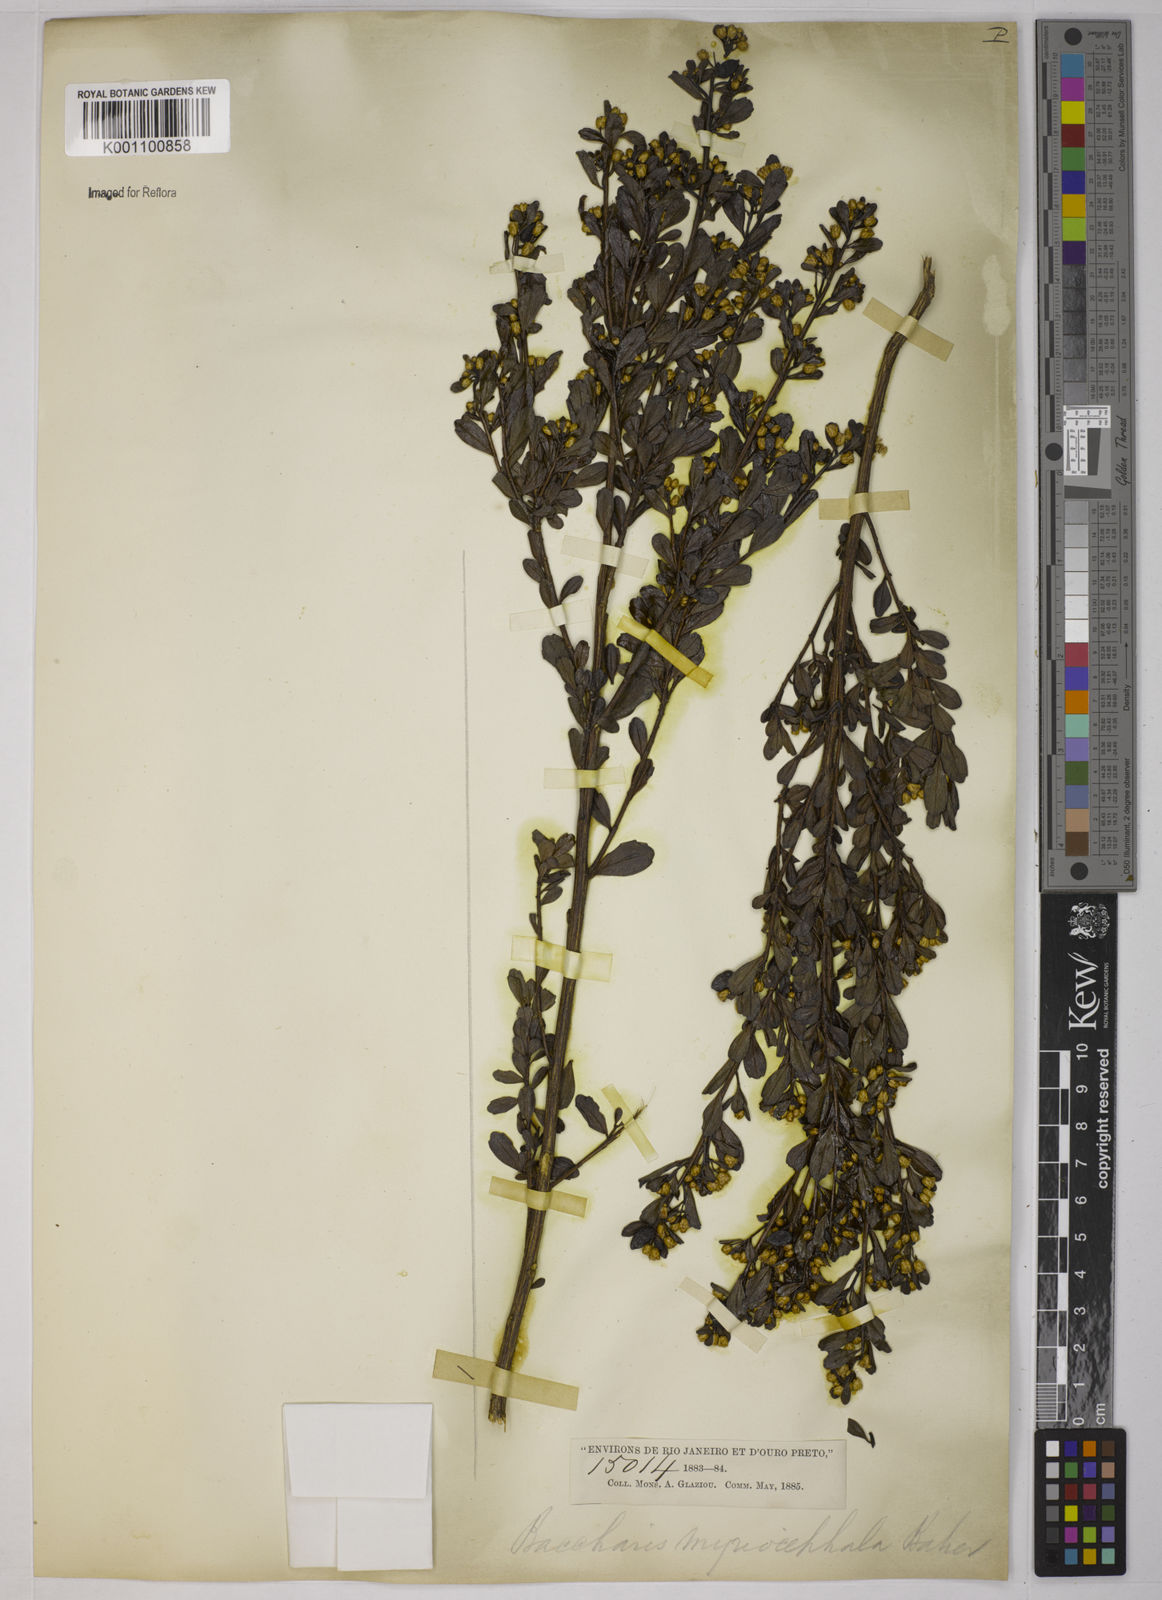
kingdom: Plantae
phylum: Tracheophyta
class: Magnoliopsida
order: Asterales
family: Asteraceae
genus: Baccharis
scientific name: Baccharis myriocephala
